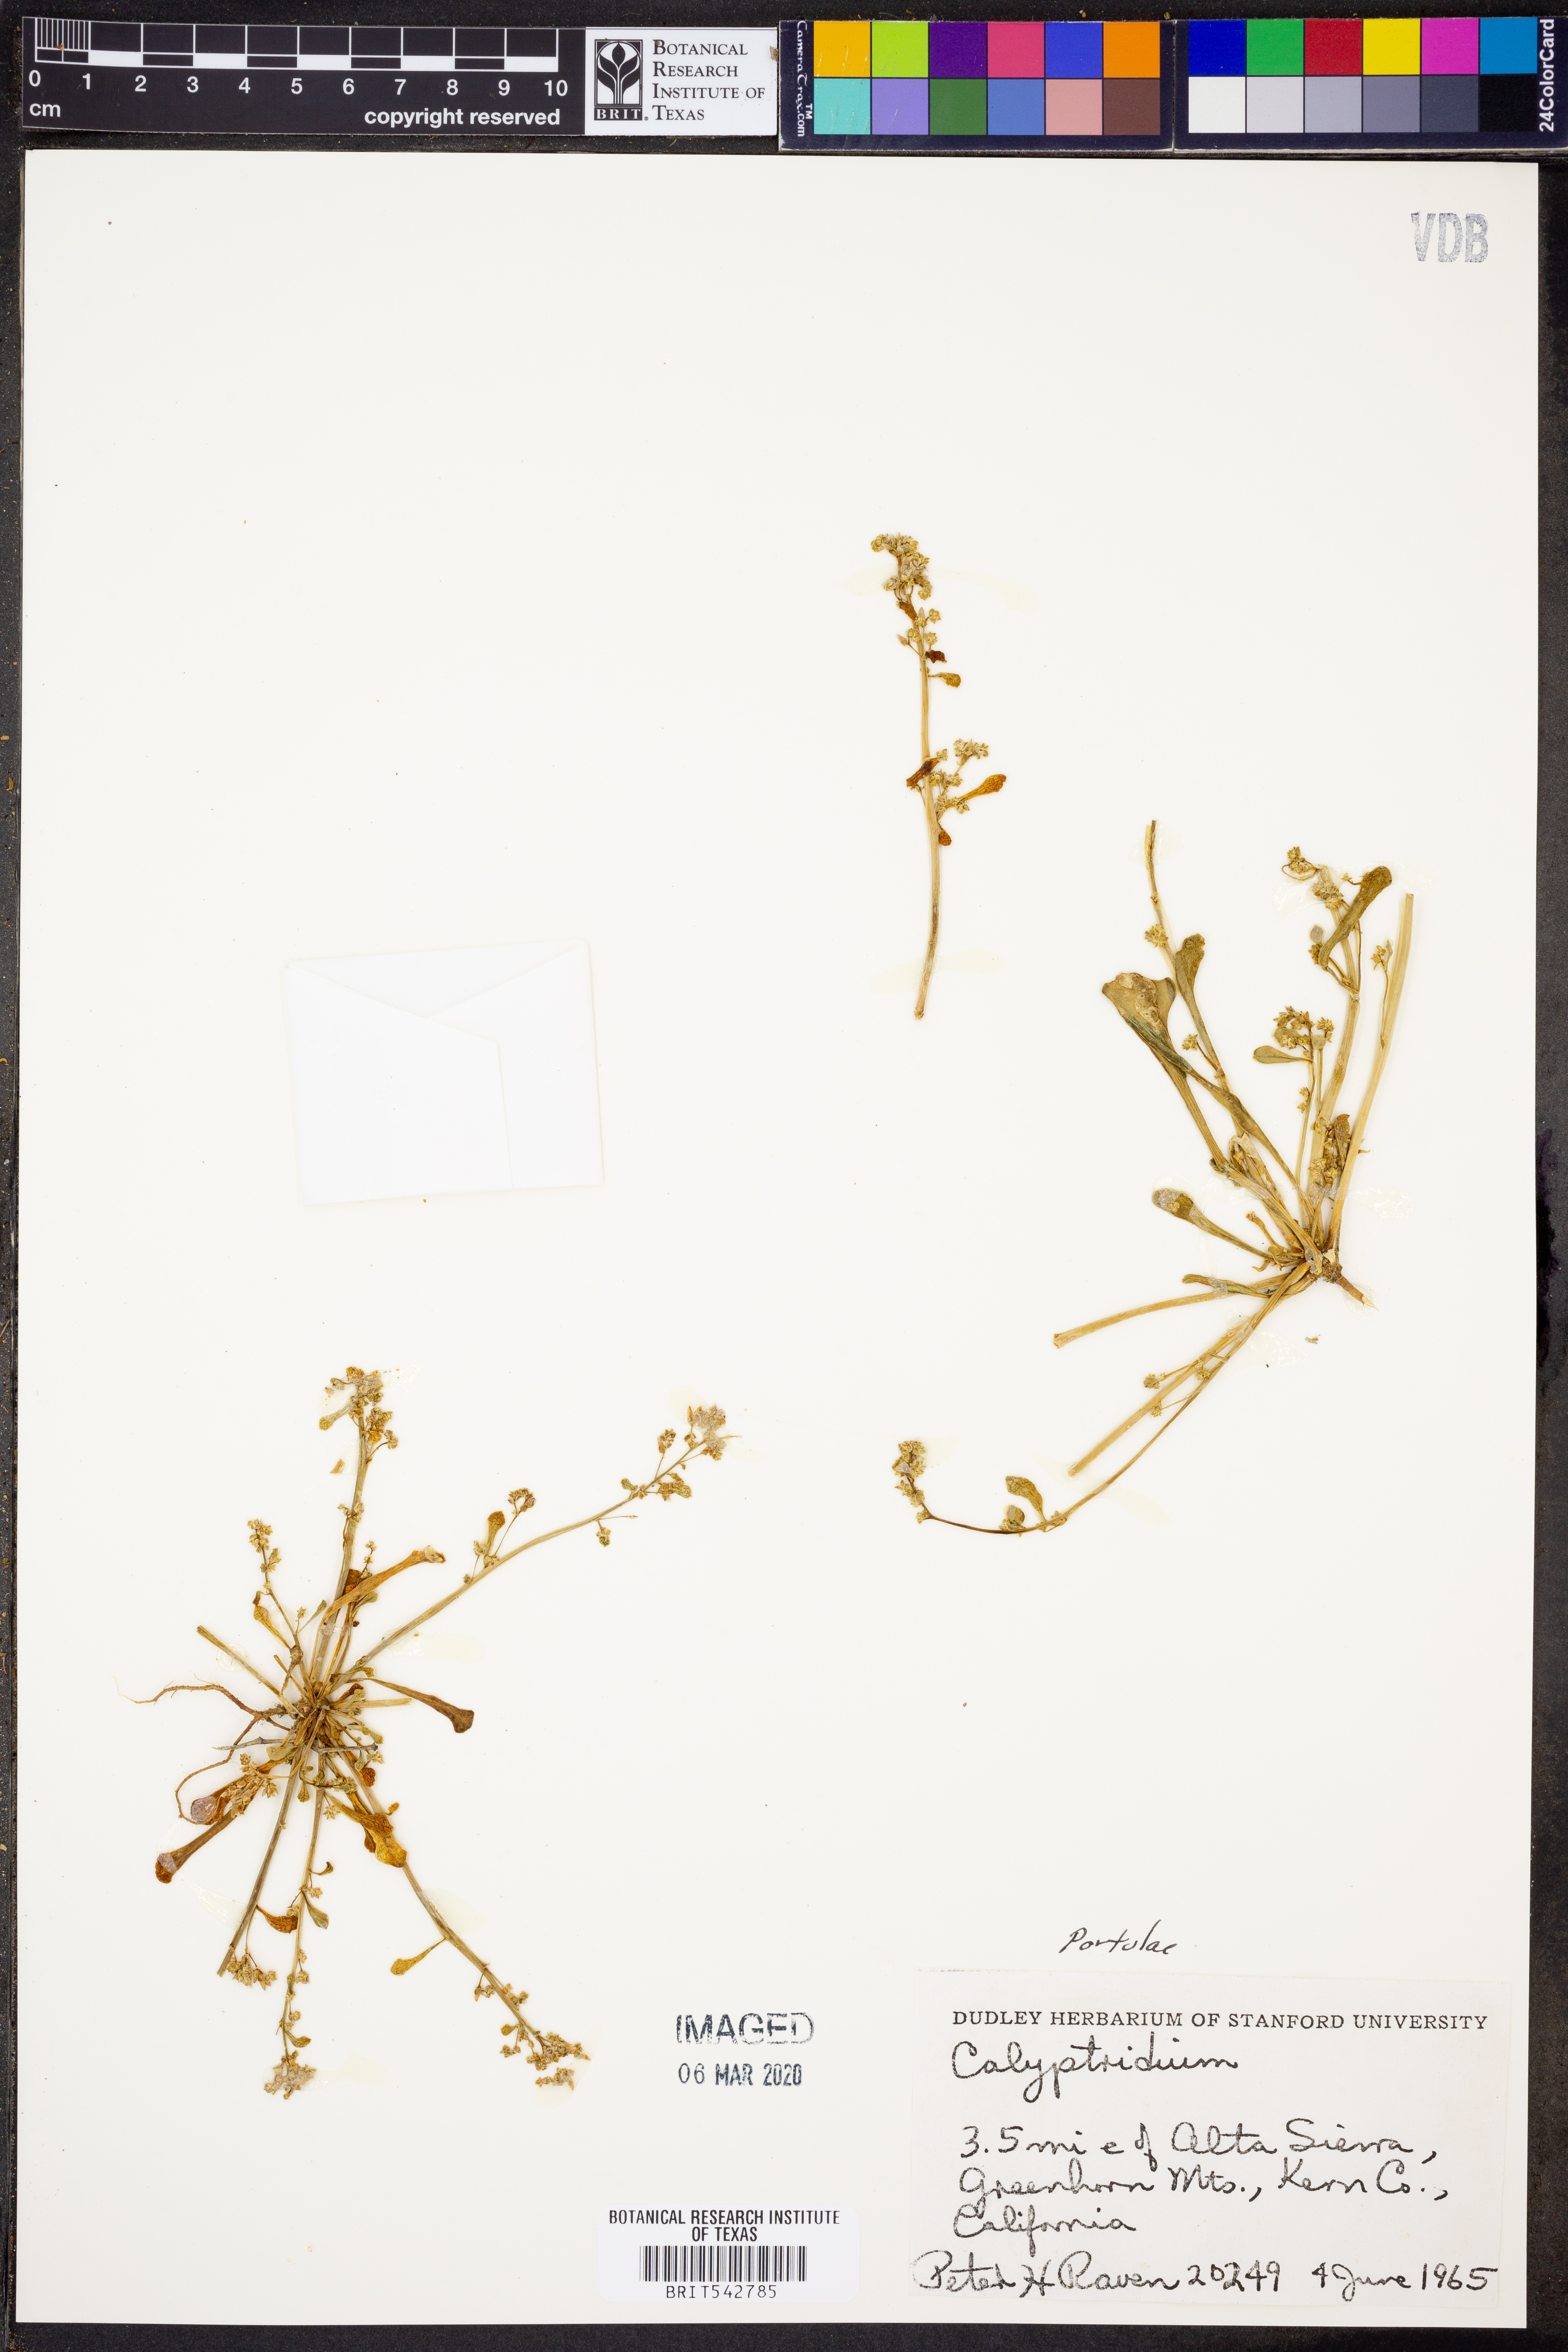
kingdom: Plantae
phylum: Tracheophyta
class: Magnoliopsida
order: Caryophyllales
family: Montiaceae
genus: Calyptridium
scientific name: Calyptridium
